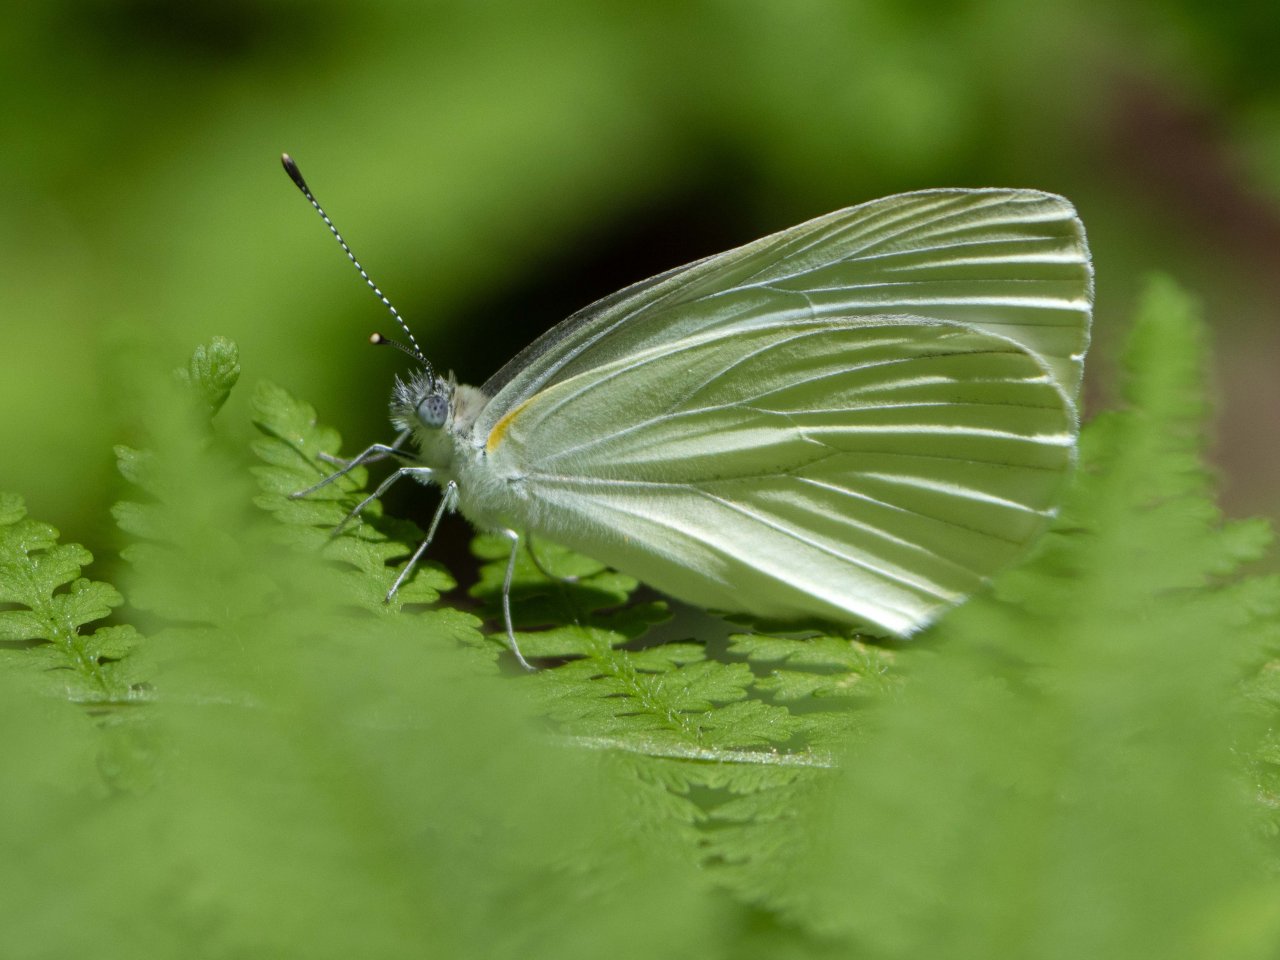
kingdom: Animalia
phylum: Arthropoda
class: Insecta
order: Lepidoptera
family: Pieridae
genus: Pieris
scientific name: Pieris oleracea
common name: Mustard White
